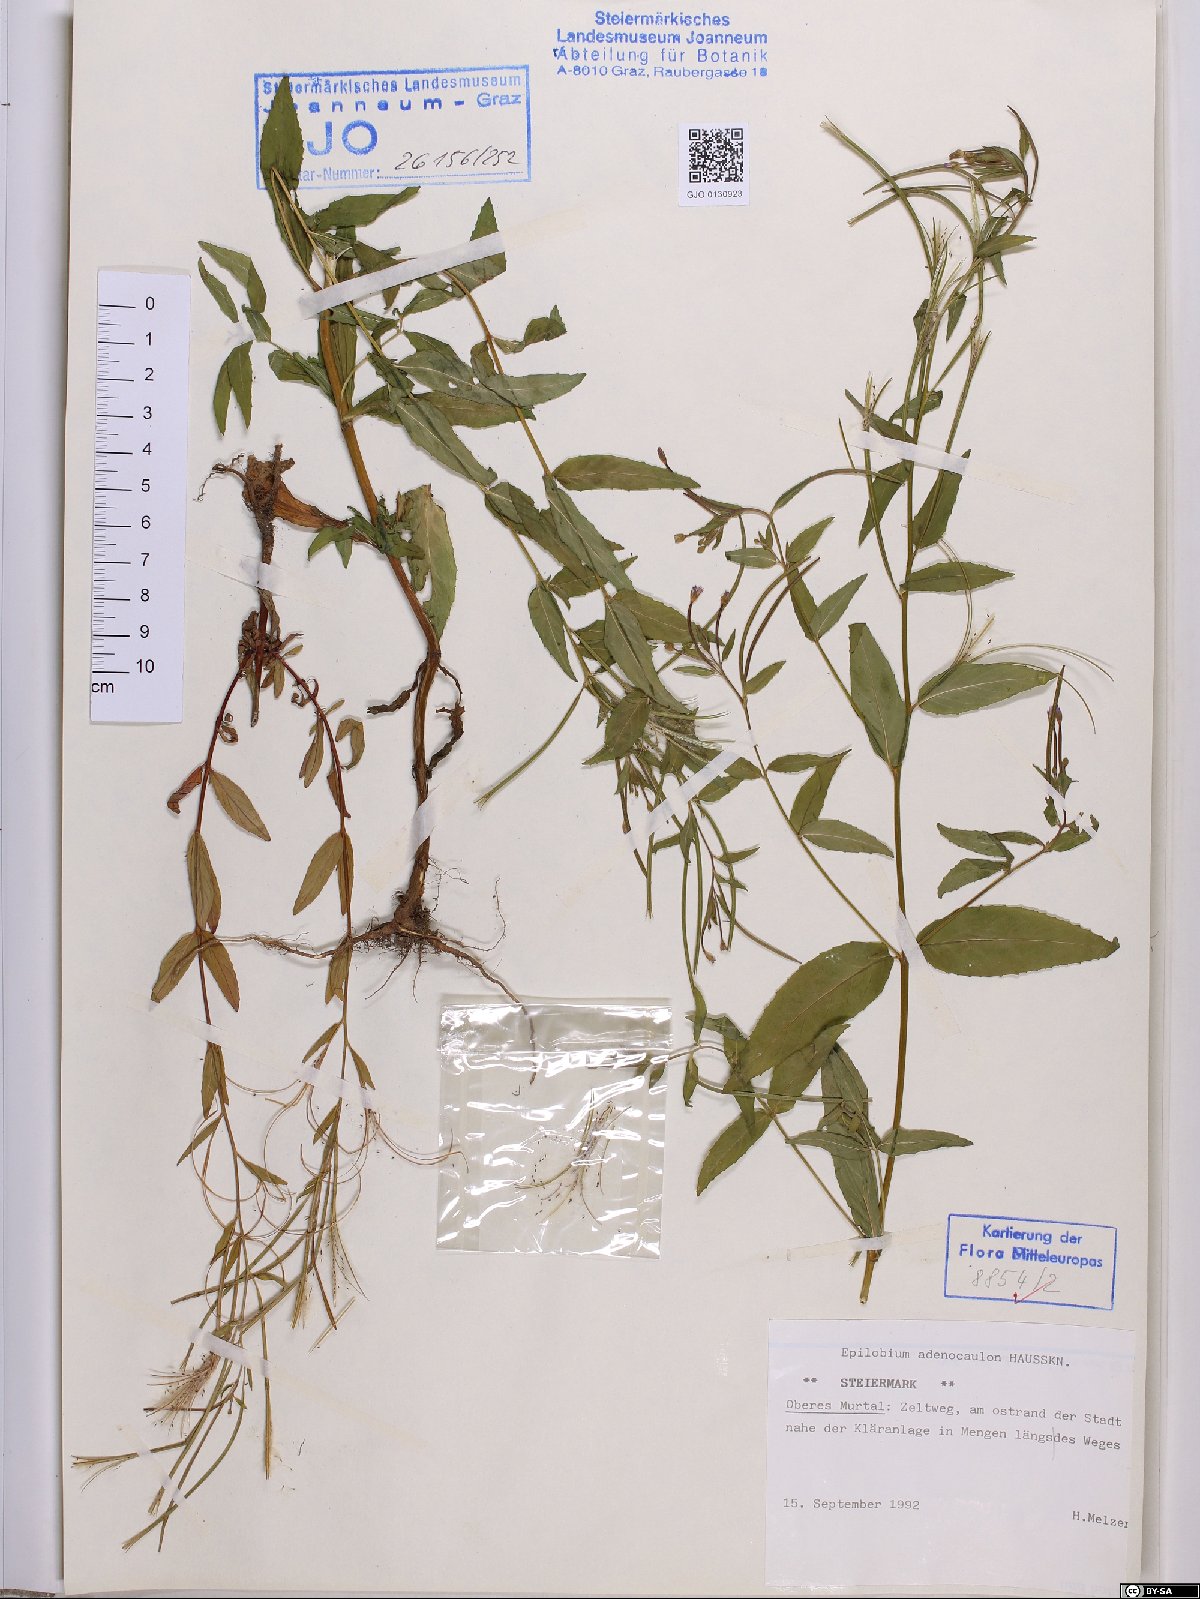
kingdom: Plantae
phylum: Tracheophyta
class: Magnoliopsida
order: Myrtales
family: Onagraceae
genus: Epilobium
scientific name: Epilobium ciliatum
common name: American willowherb
